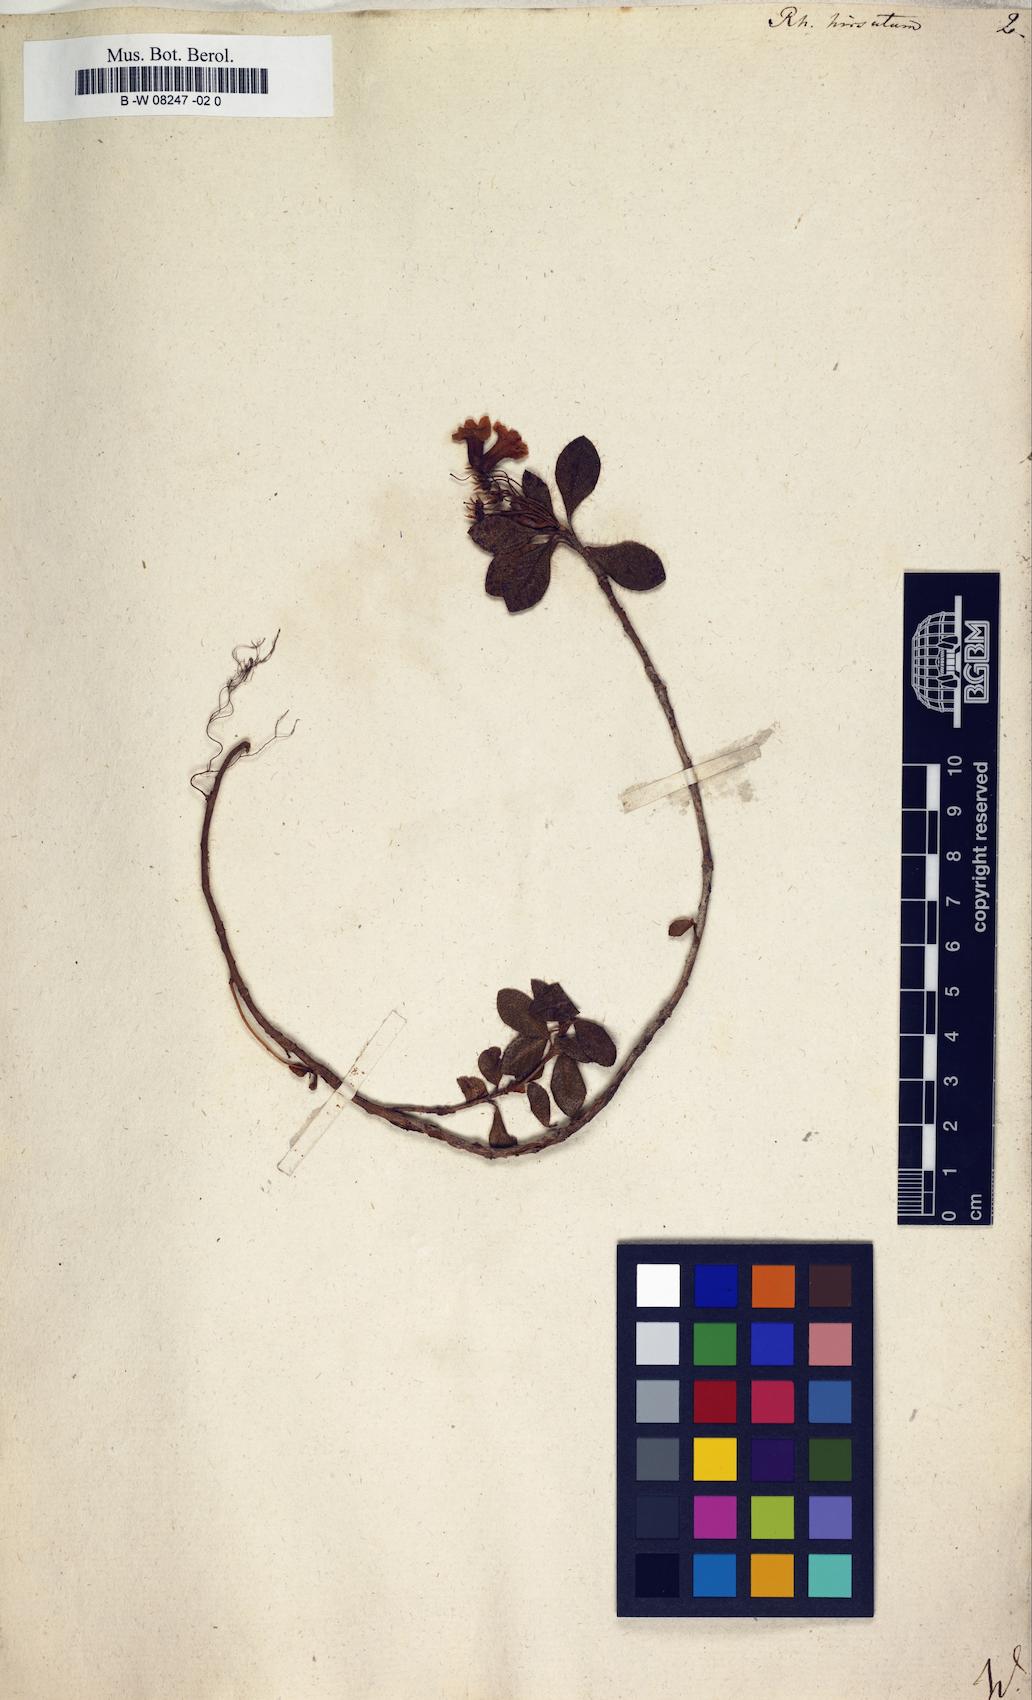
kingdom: Plantae
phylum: Tracheophyta
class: Magnoliopsida
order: Ericales
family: Ericaceae
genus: Rhododendron
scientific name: Rhododendron hirsutum
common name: Hairy alpenrose
